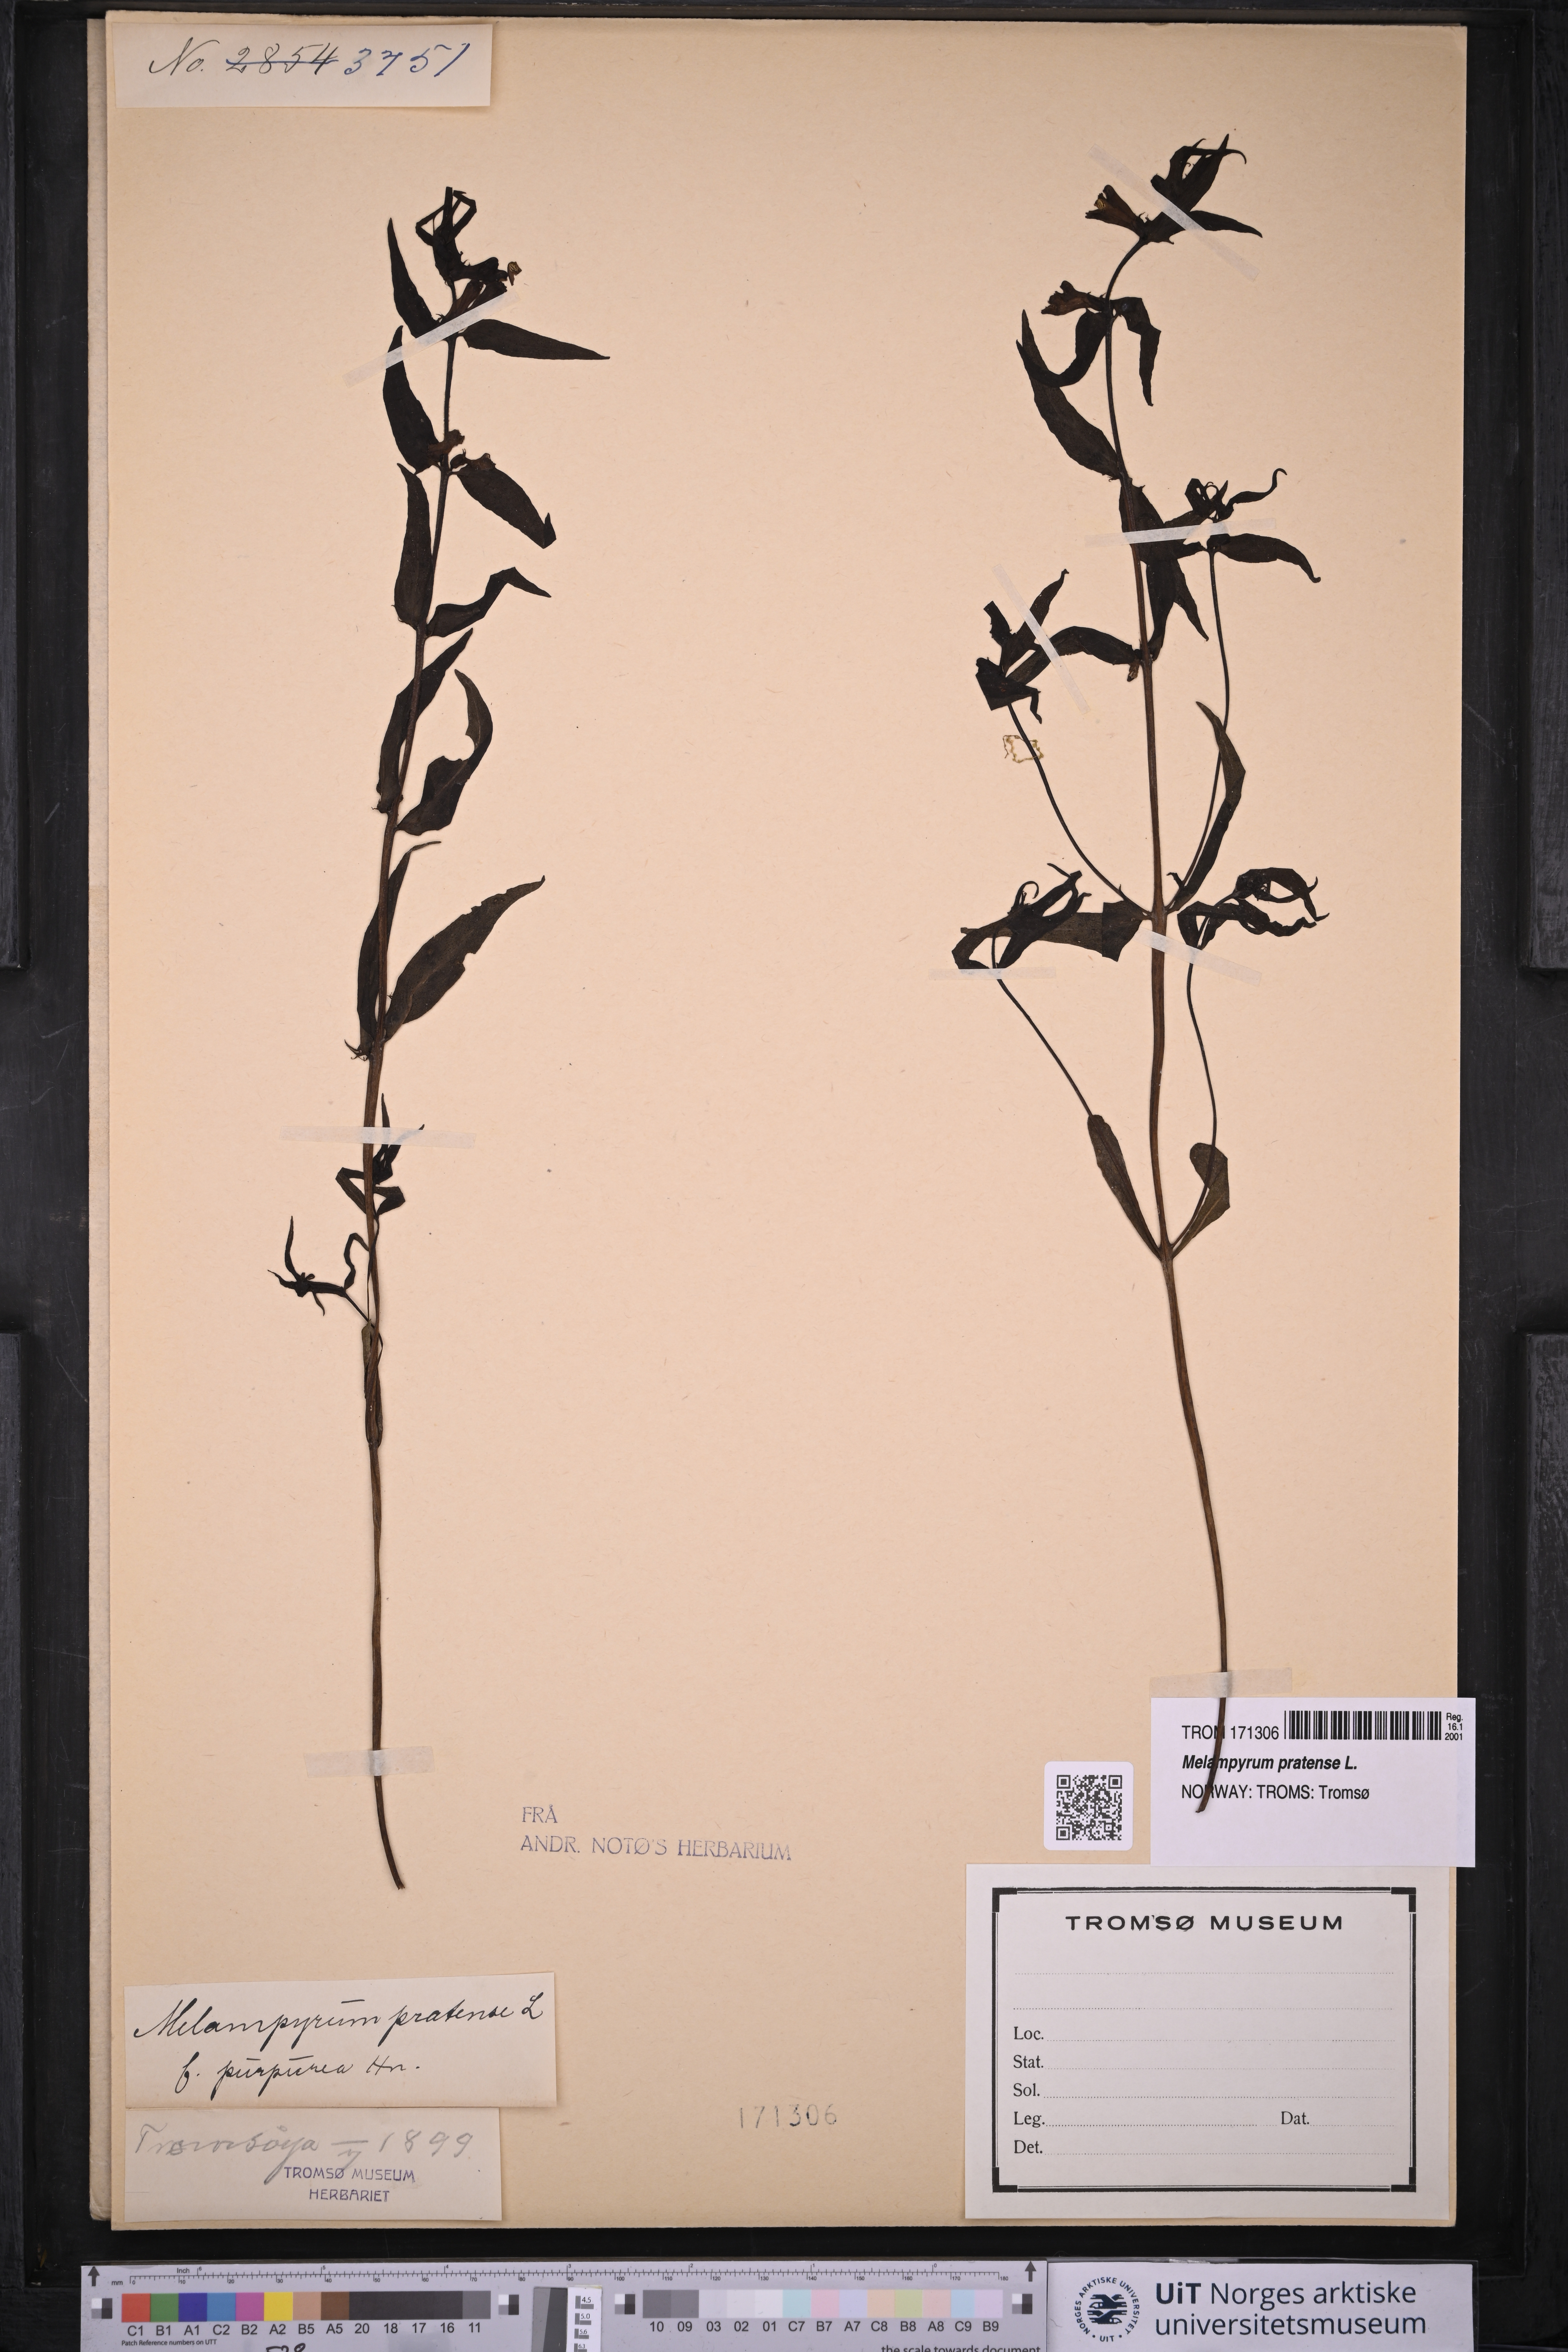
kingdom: Plantae
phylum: Tracheophyta
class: Magnoliopsida
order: Lamiales
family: Orobanchaceae
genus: Melampyrum
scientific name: Melampyrum pratense
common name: Common cow-wheat
